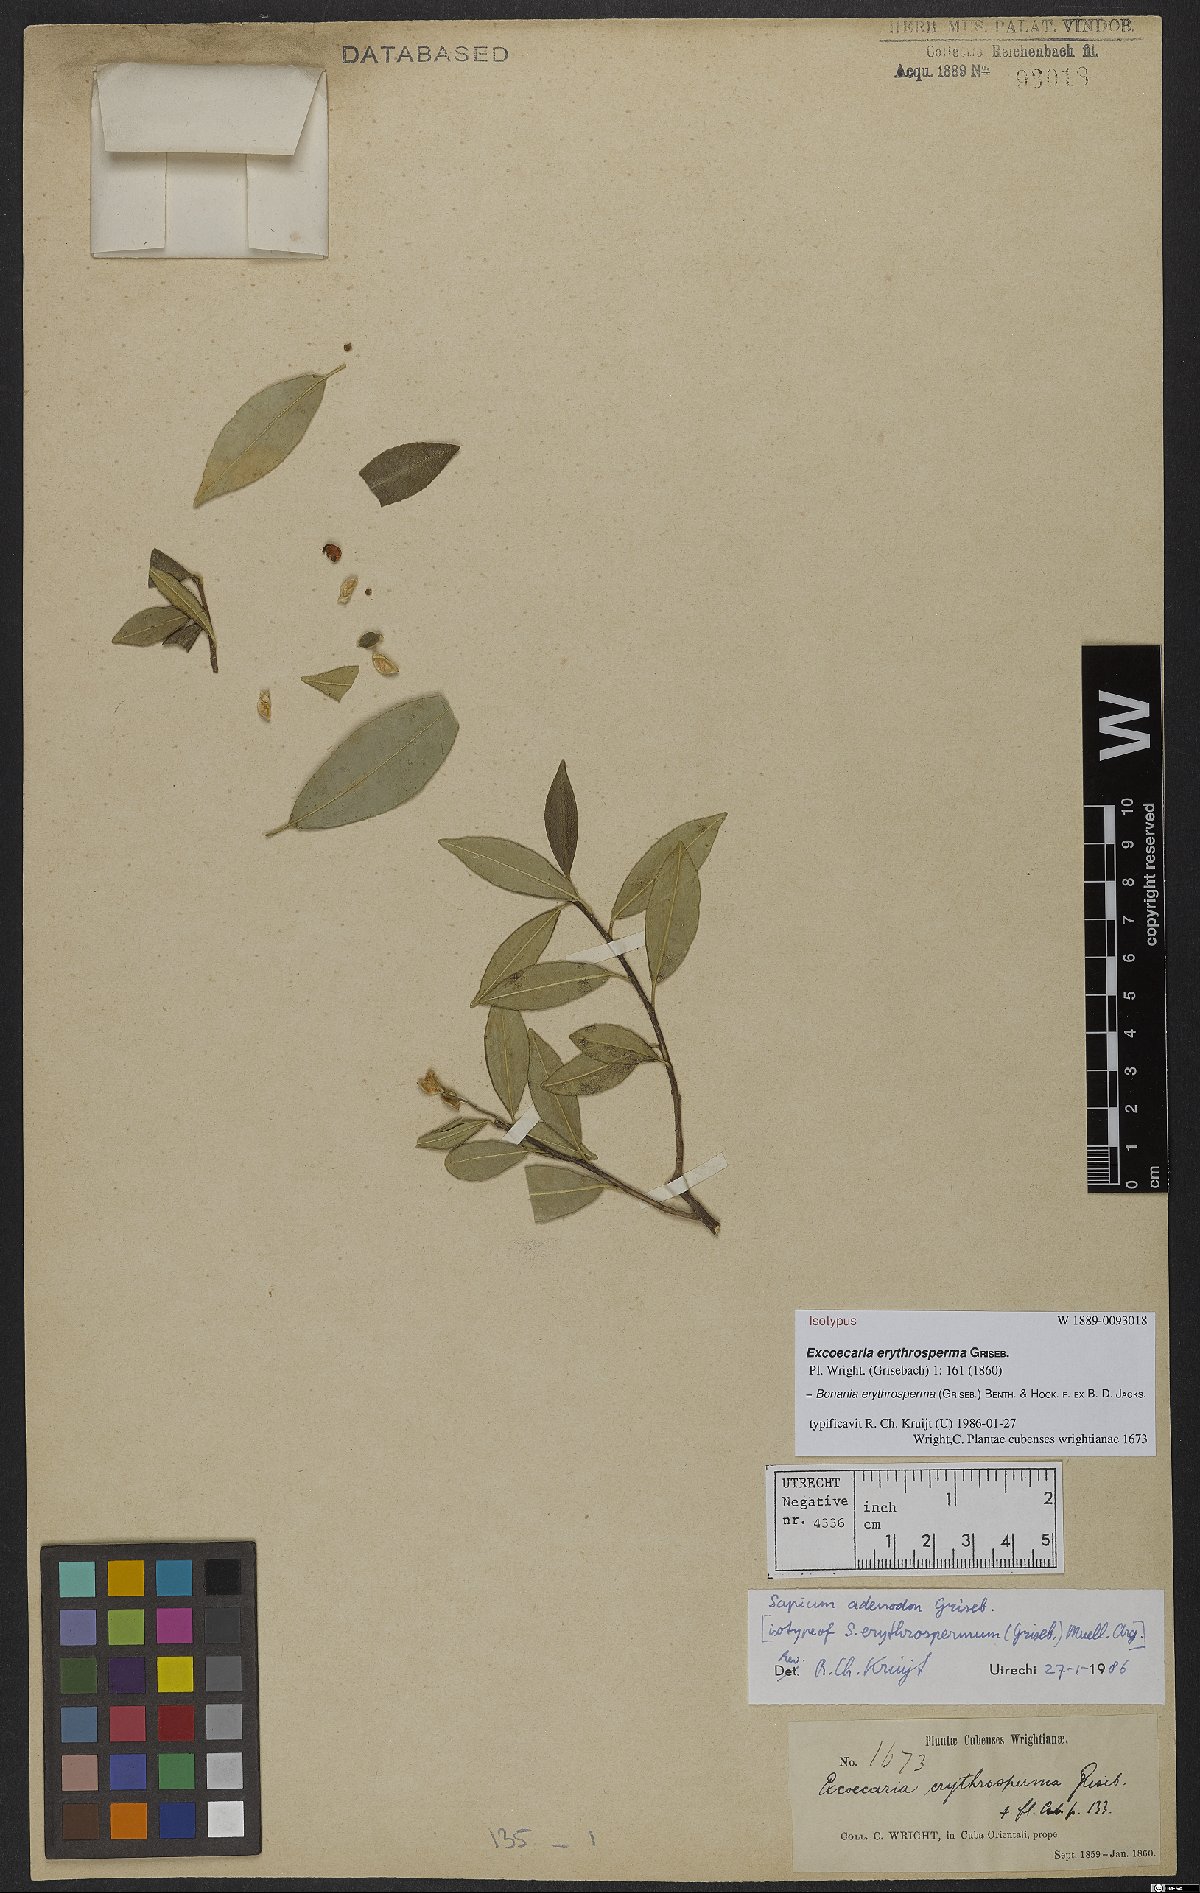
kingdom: Plantae
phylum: Tracheophyta
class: Magnoliopsida
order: Malpighiales
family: Euphorbiaceae
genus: Bonania
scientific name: Bonania erythrosperma
